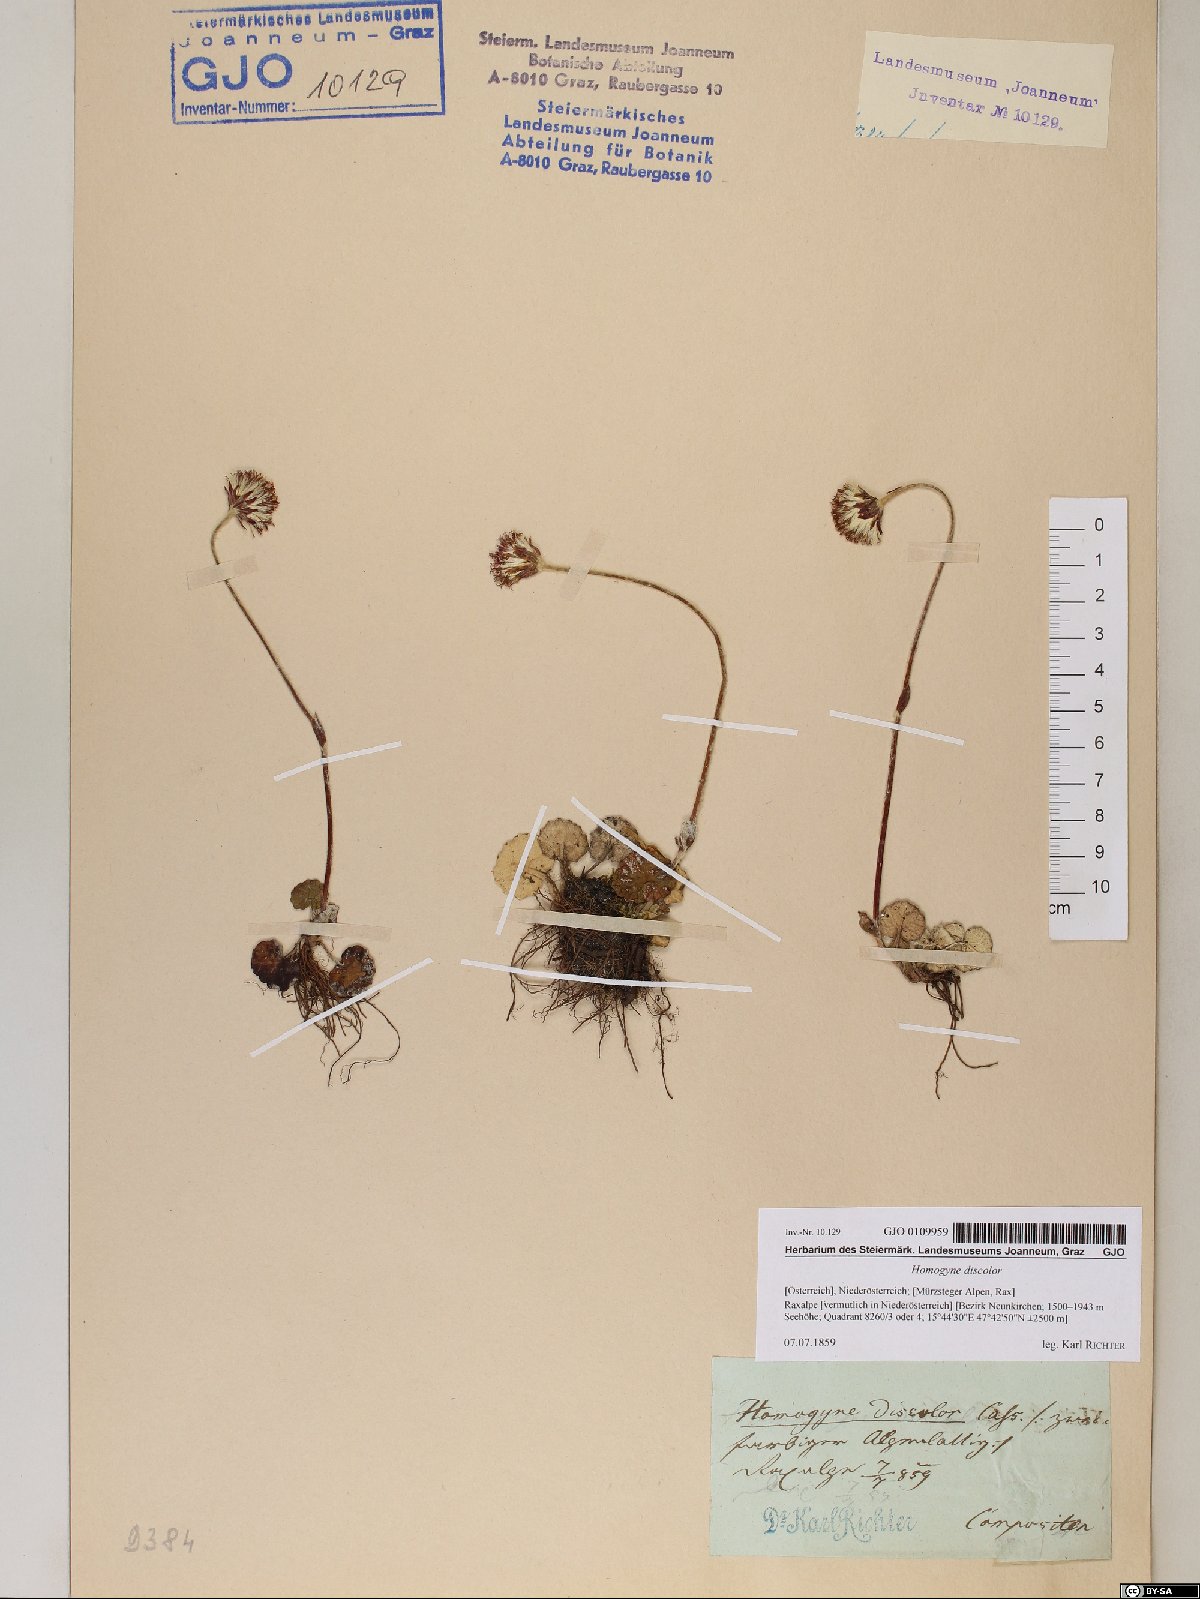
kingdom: Plantae
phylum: Tracheophyta
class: Magnoliopsida
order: Asterales
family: Asteraceae
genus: Homogyne
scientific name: Homogyne discolor
